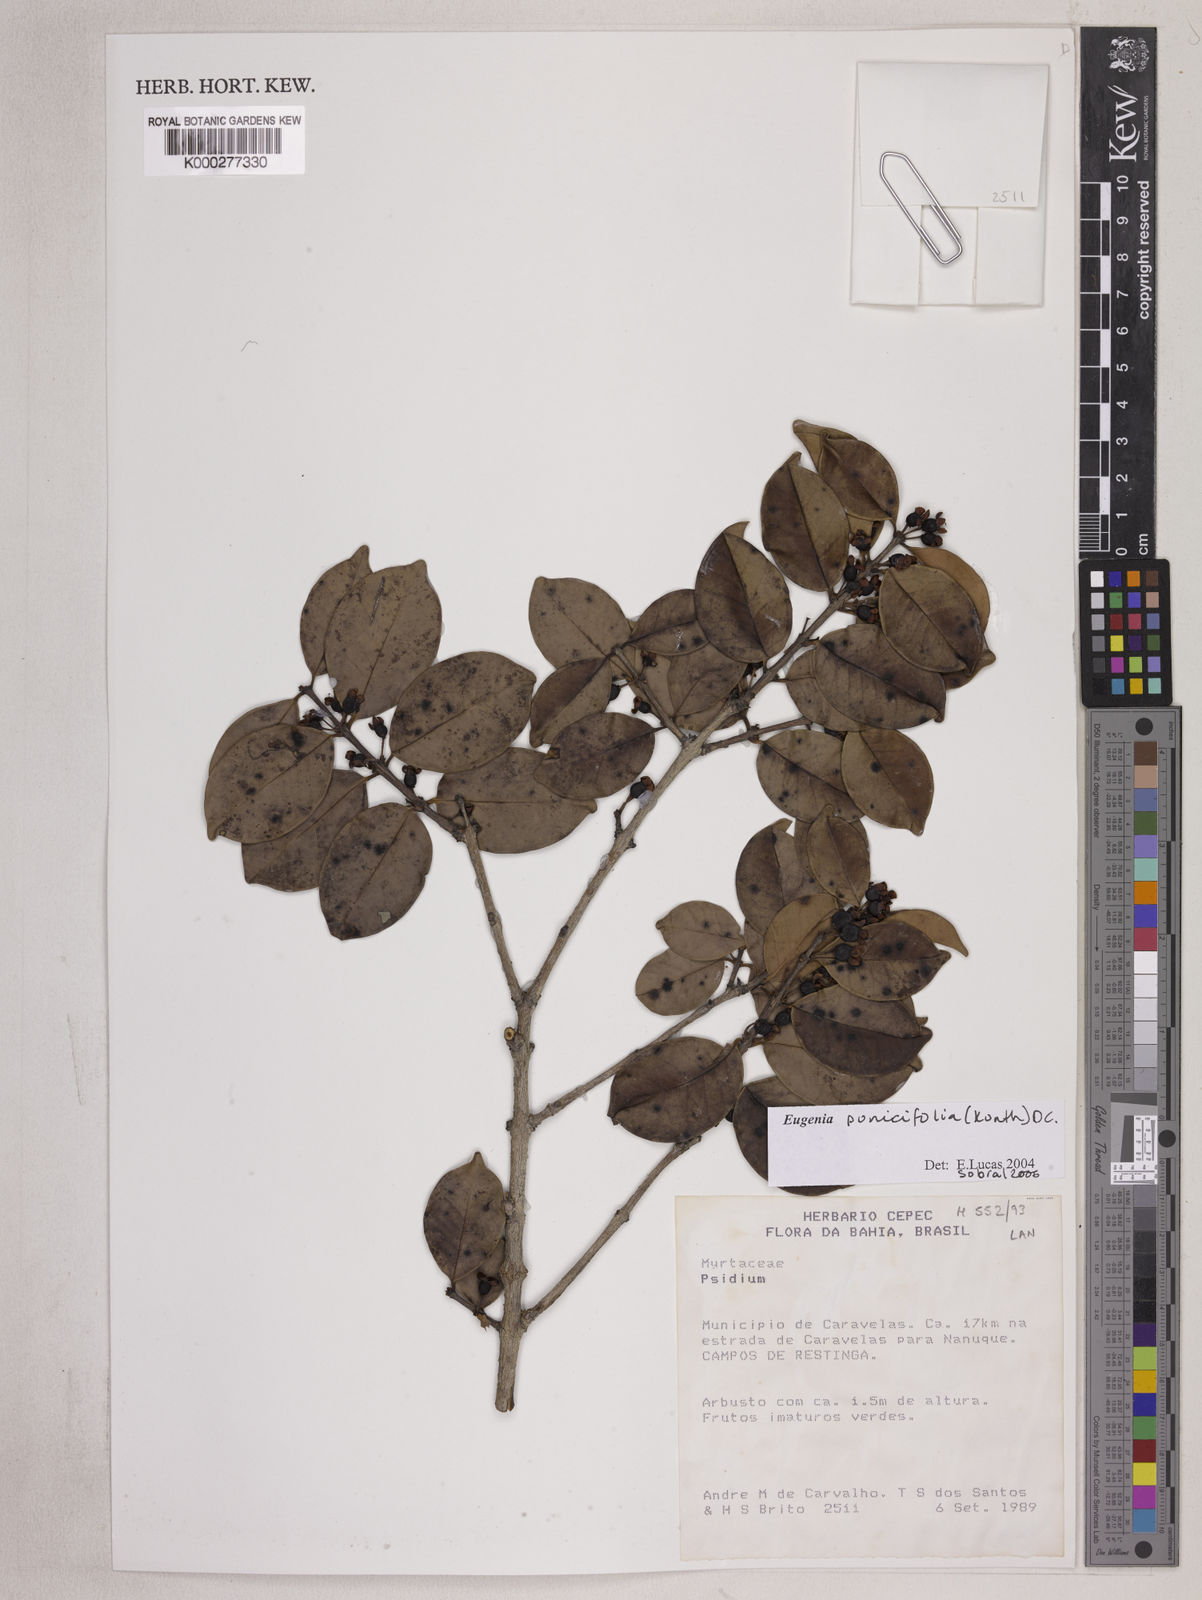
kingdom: Plantae
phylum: Tracheophyta
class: Magnoliopsida
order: Myrtales
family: Myrtaceae
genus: Eugenia
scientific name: Eugenia punicifolia
